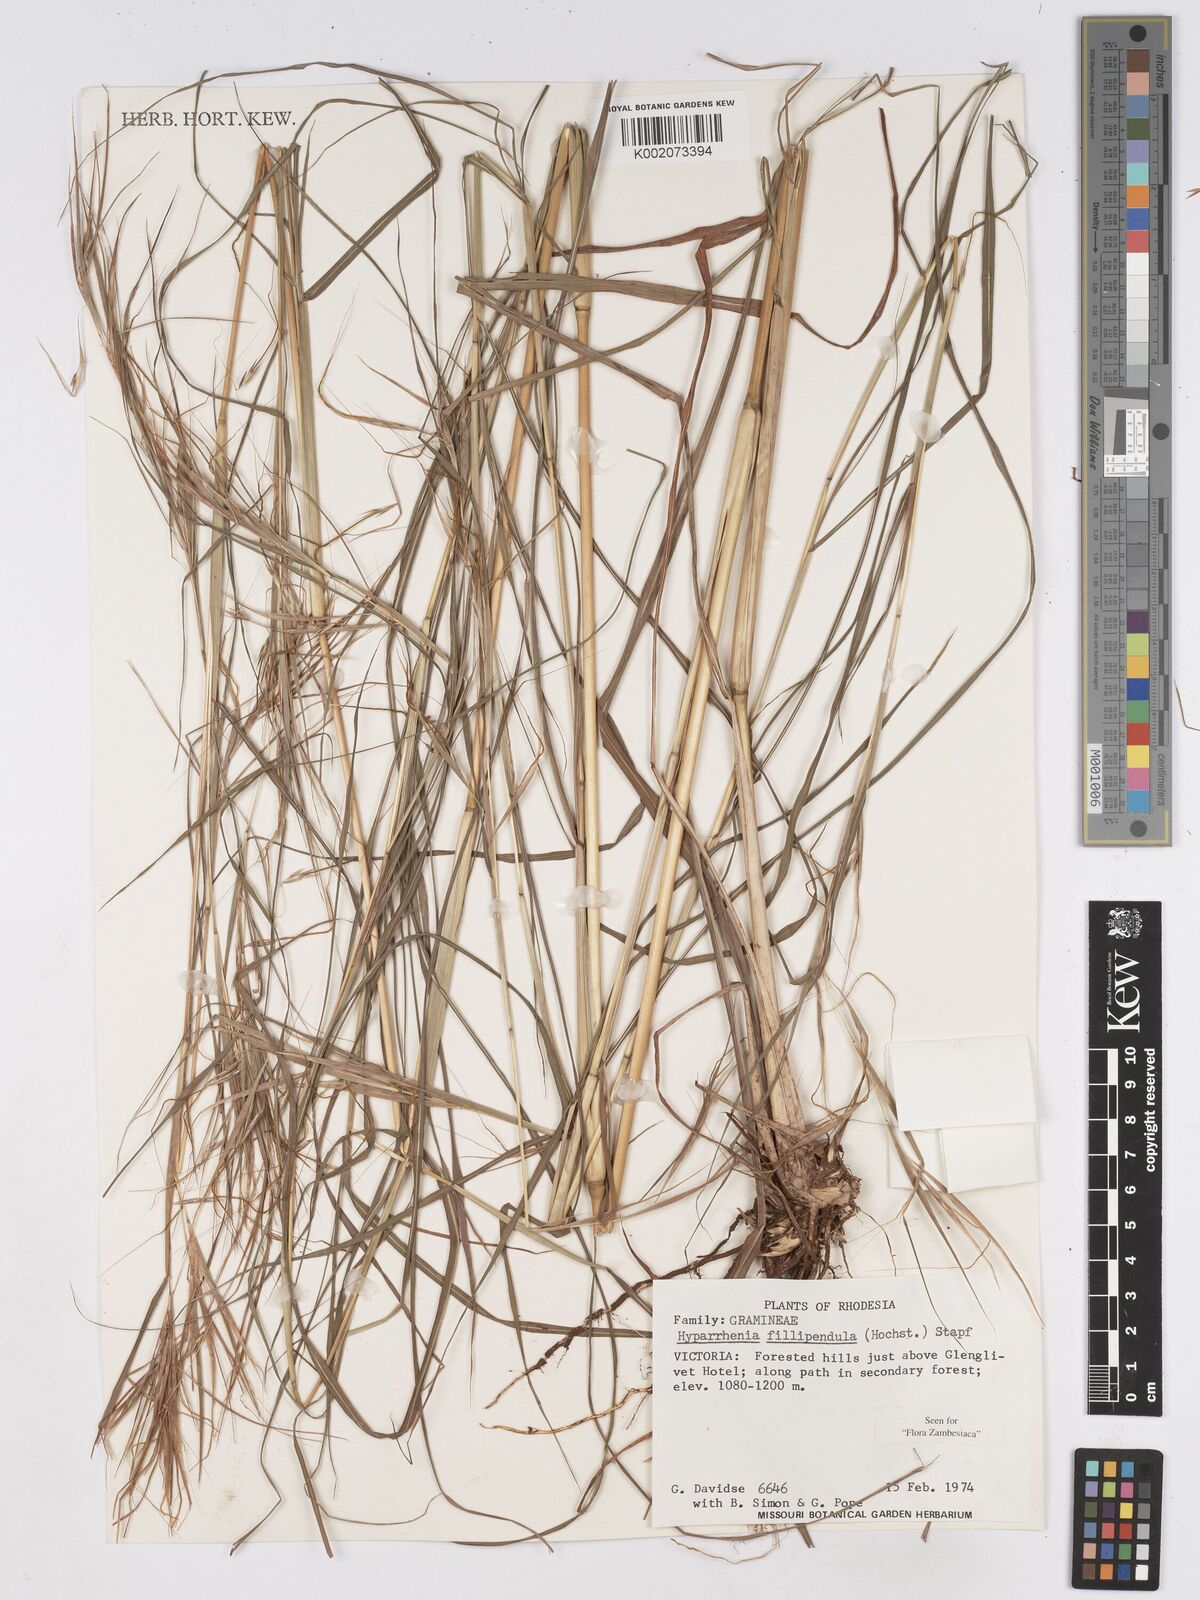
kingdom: Plantae
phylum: Tracheophyta
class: Liliopsida
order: Poales
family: Poaceae
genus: Hyparrhenia
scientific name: Hyparrhenia filipendula
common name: Tambookie grass
